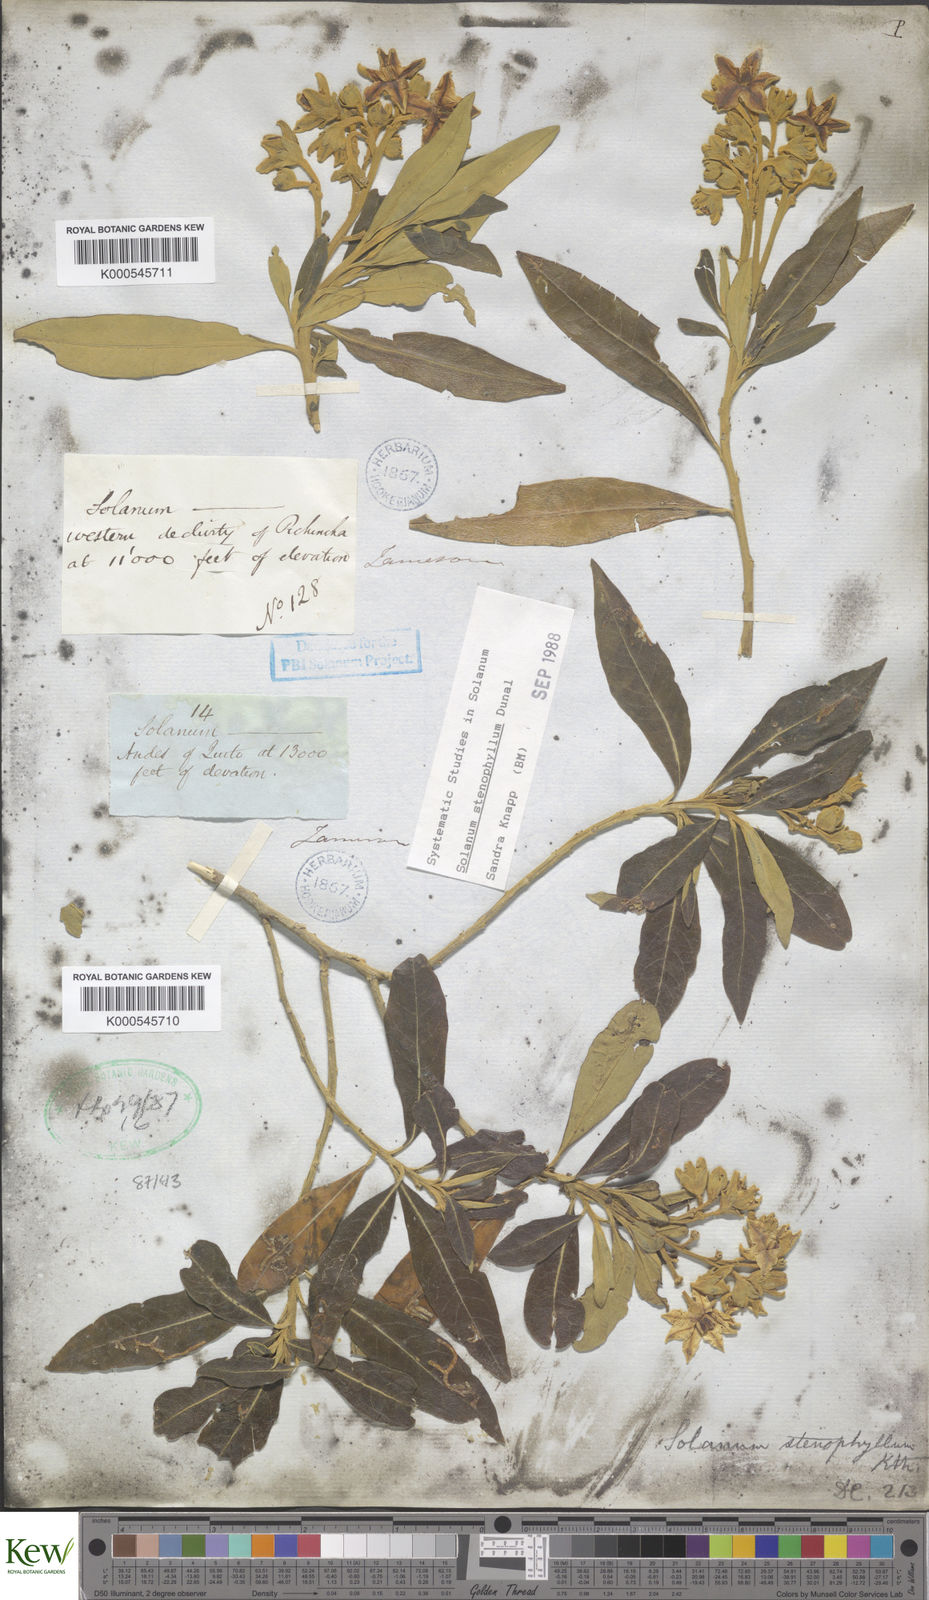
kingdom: Plantae
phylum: Tracheophyta
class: Magnoliopsida
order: Solanales
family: Solanaceae
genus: Solanum
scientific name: Solanum stenophyllum
